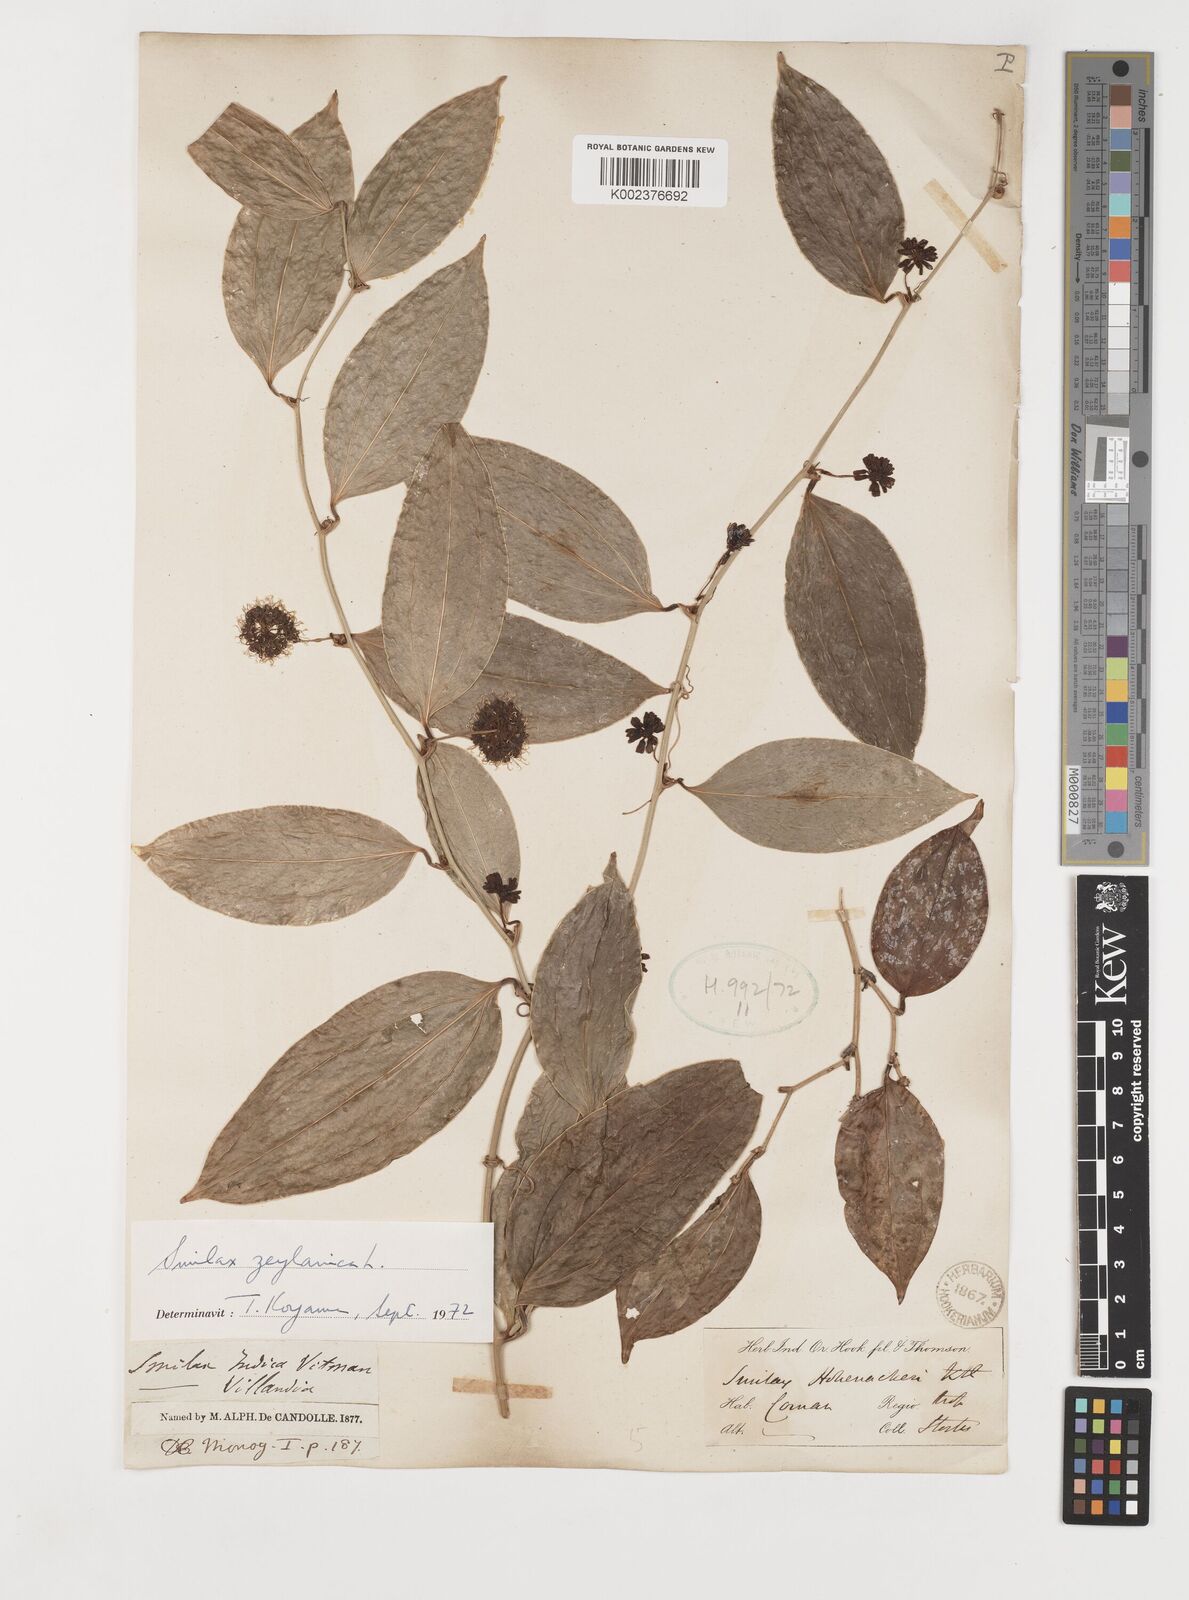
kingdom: Plantae
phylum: Tracheophyta
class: Liliopsida
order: Liliales
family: Smilacaceae
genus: Smilax
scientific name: Smilax zeylanica
